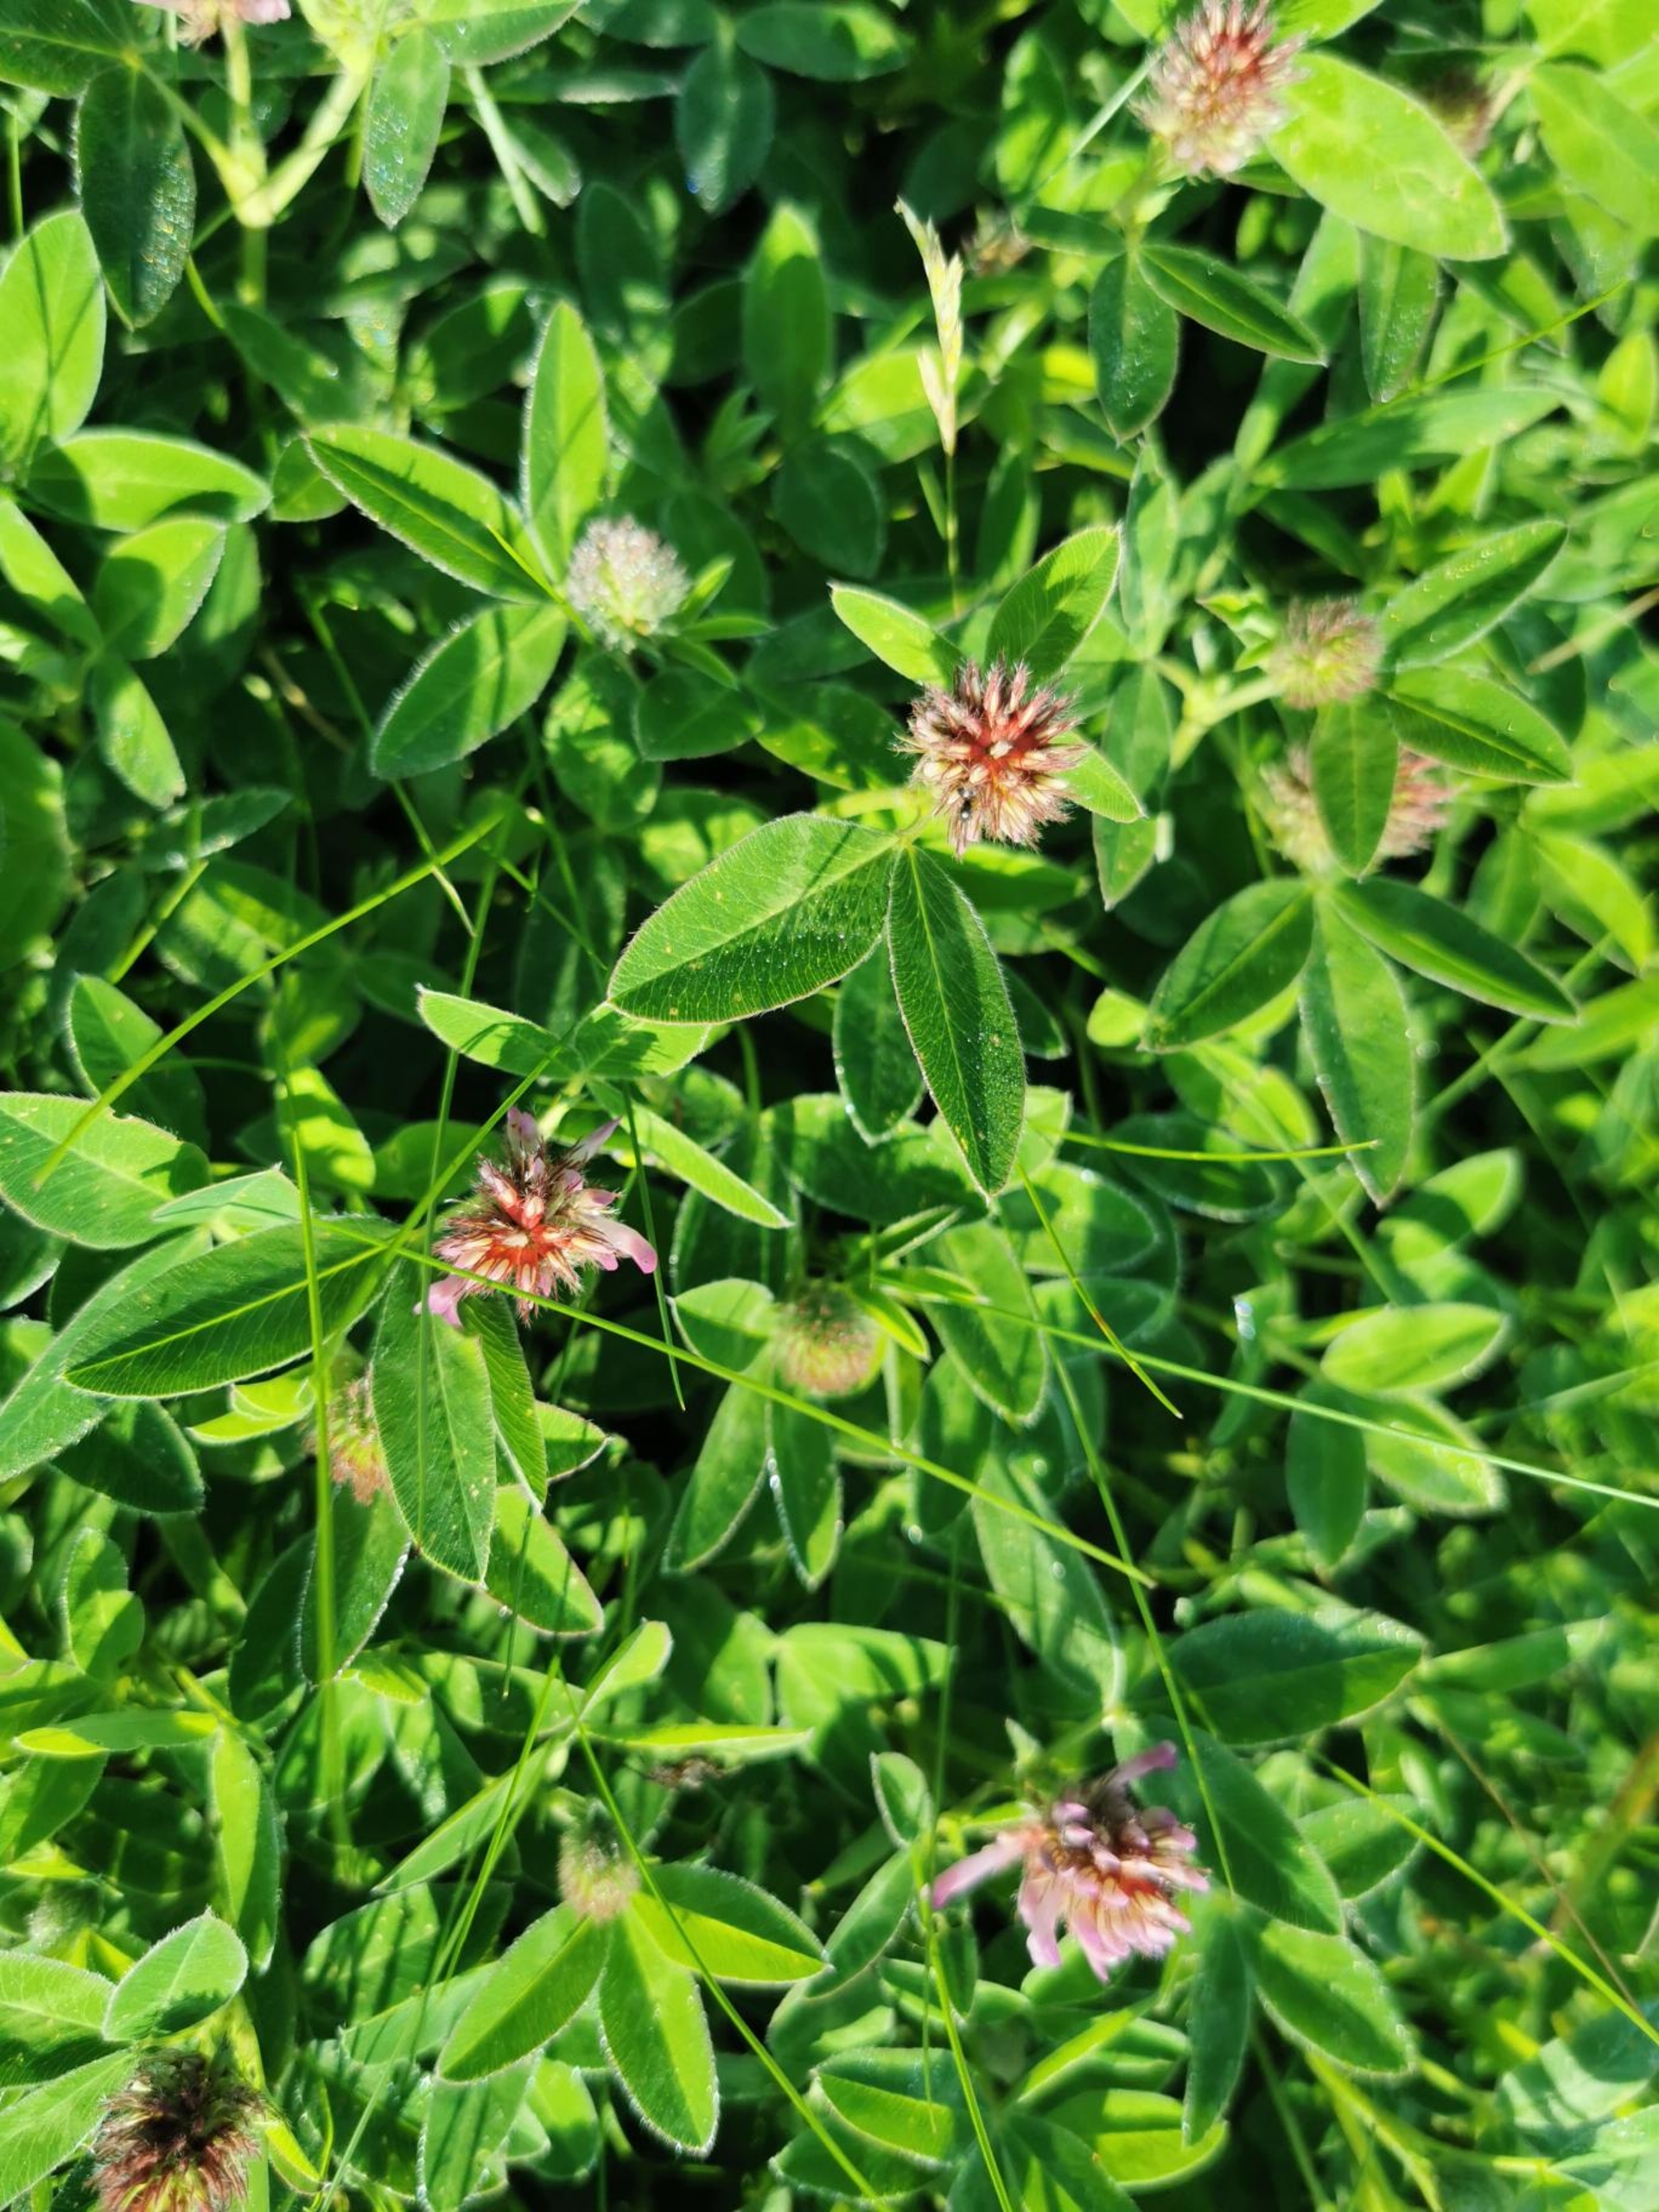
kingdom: Plantae
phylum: Tracheophyta
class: Magnoliopsida
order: Fabales
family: Fabaceae
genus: Trifolium
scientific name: Trifolium medium
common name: Bugtet kløver
